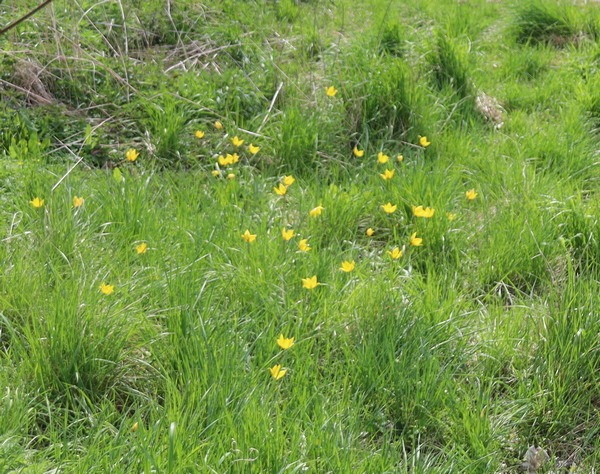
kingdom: Plantae
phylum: Tracheophyta
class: Liliopsida
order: Liliales
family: Liliaceae
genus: Tulipa
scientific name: Tulipa sylvestris
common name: Vild tulipan
